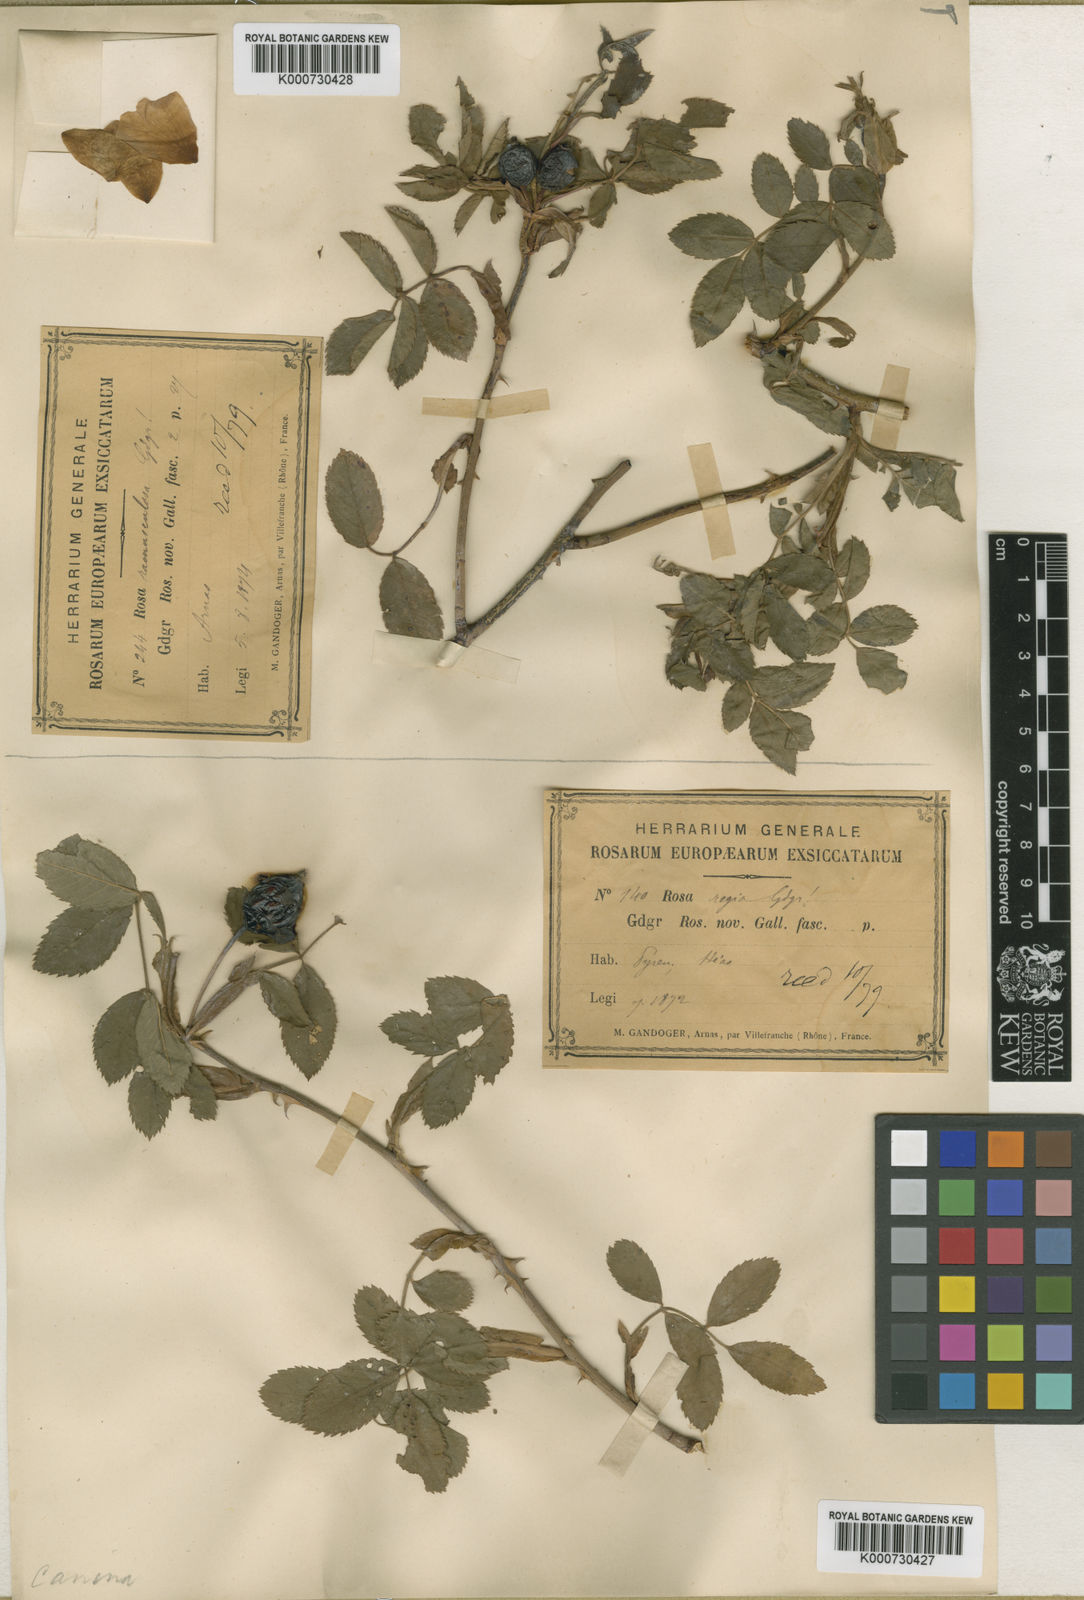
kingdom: Plantae
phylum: Tracheophyta
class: Magnoliopsida
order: Rosales
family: Rosaceae
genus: Rosa
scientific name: Rosa canina
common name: Dog rose
